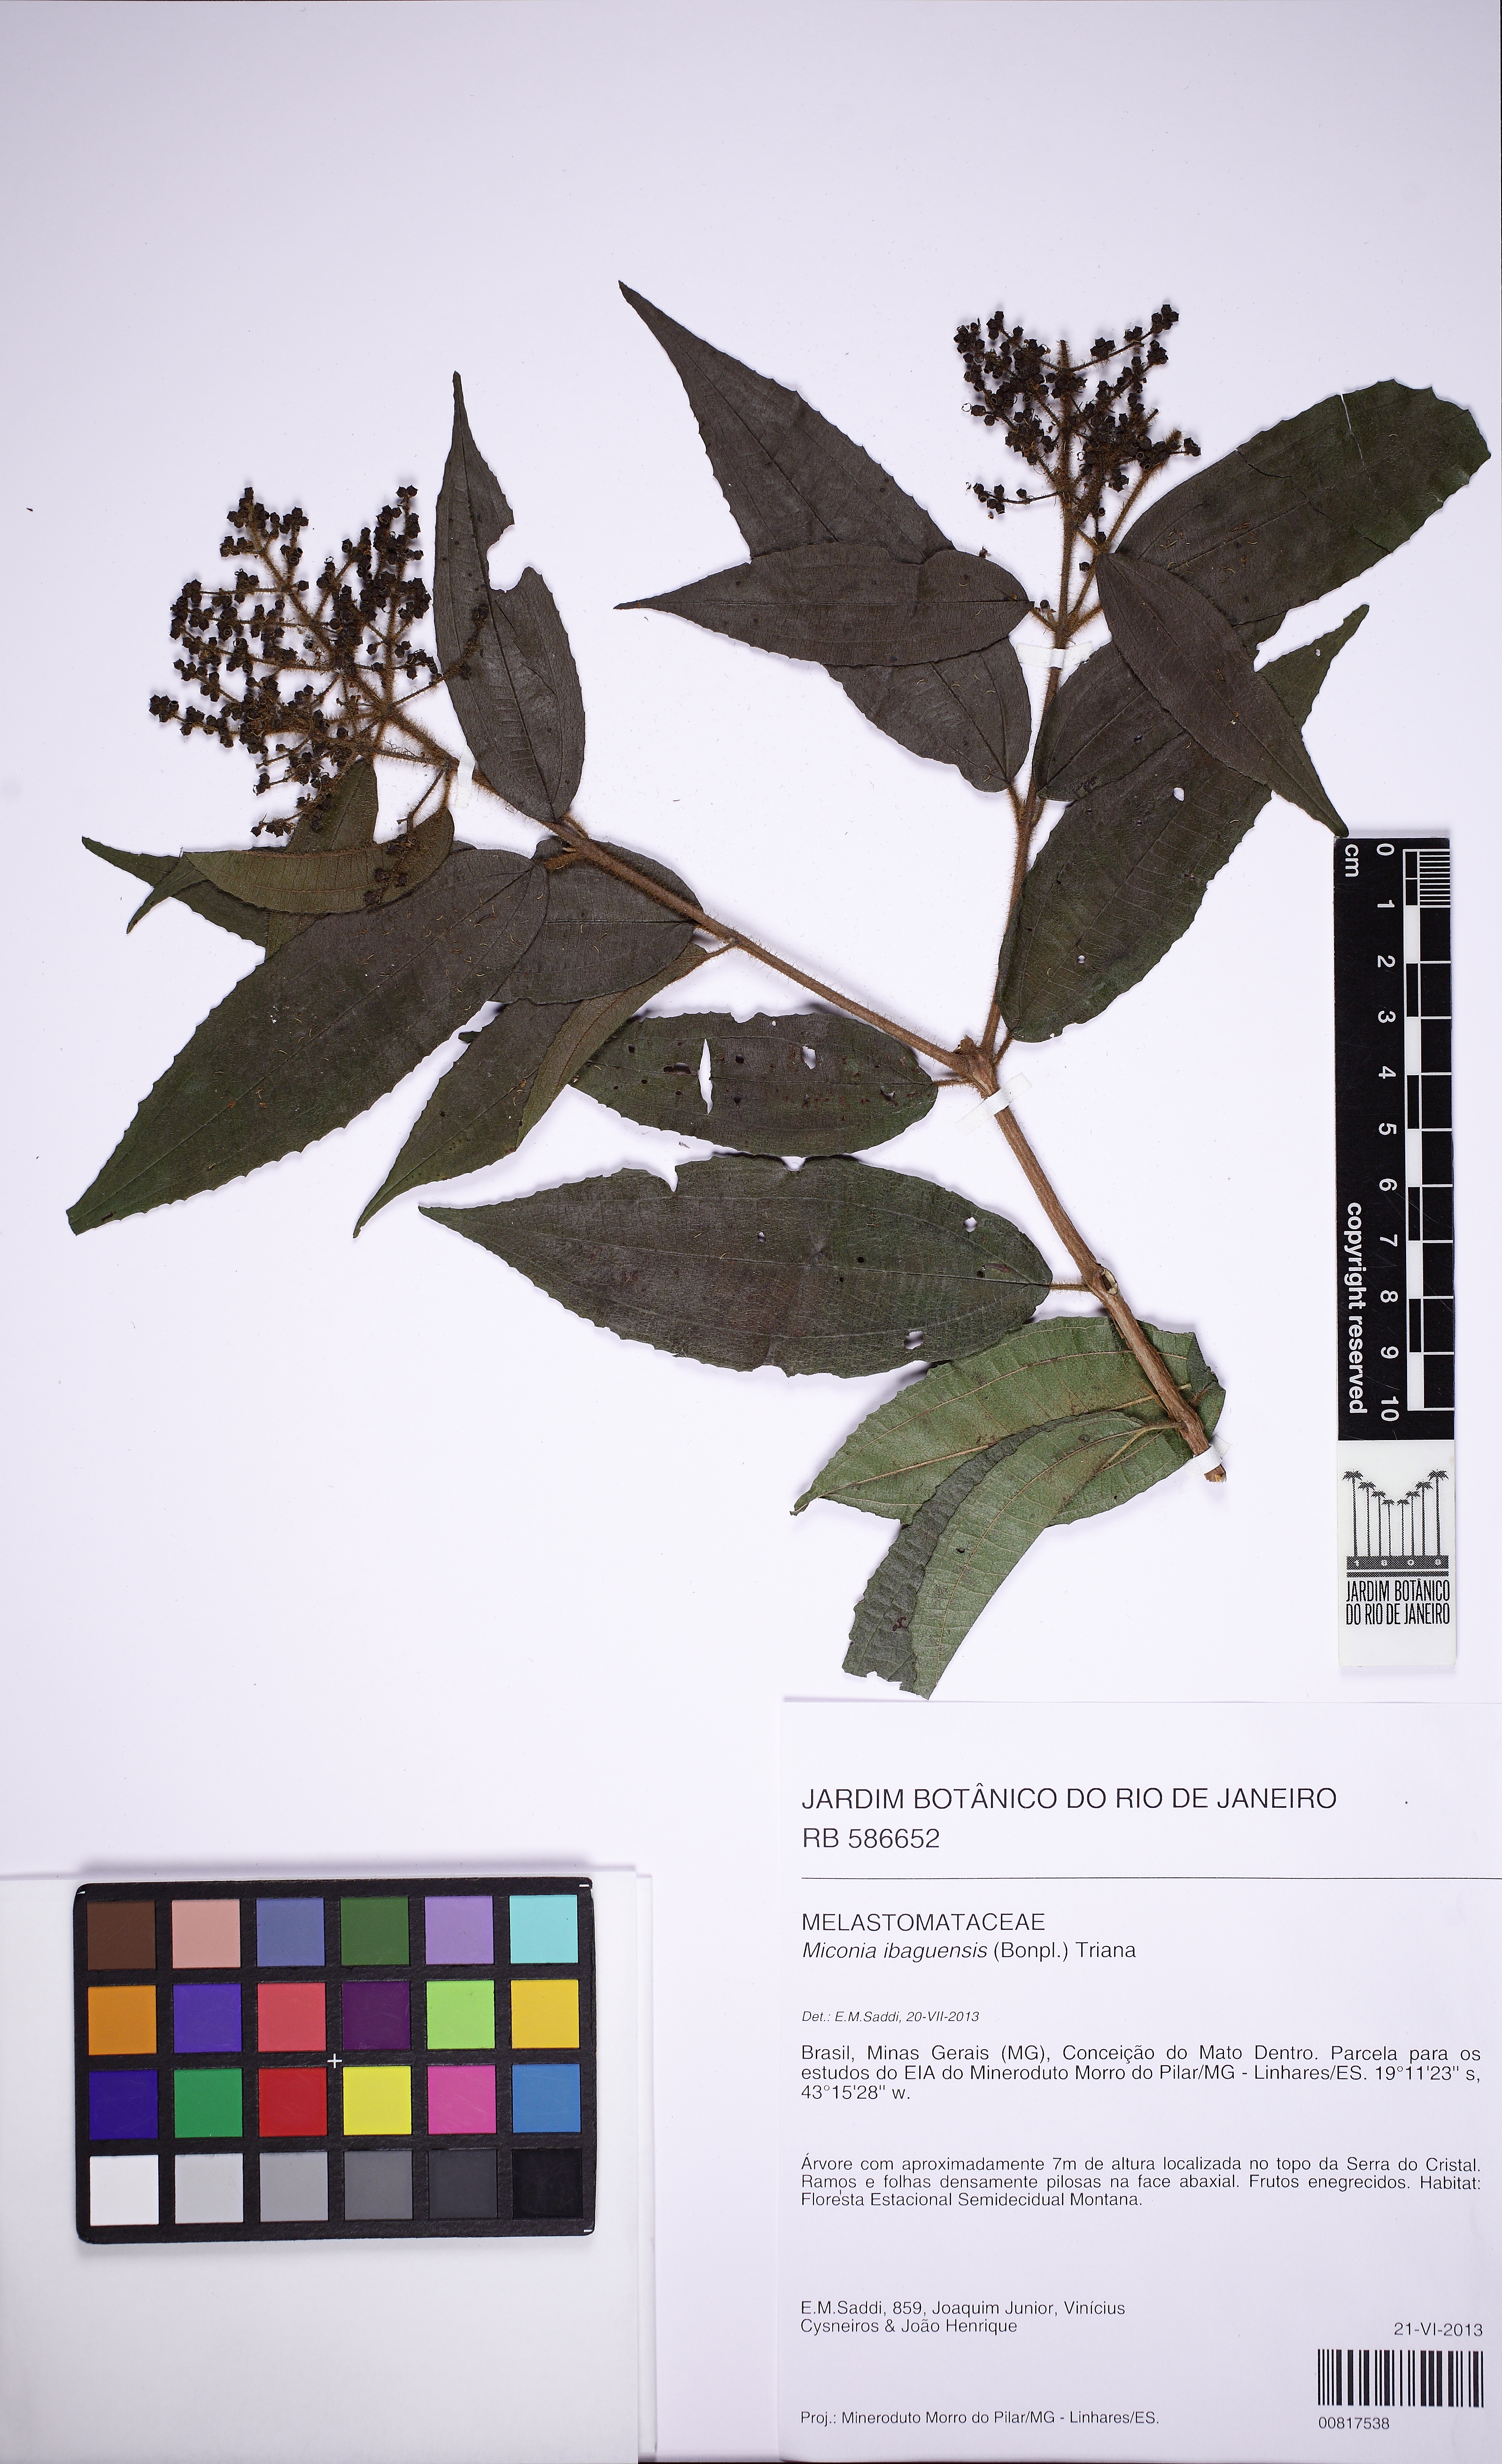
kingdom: Plantae
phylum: Tracheophyta
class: Magnoliopsida
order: Myrtales
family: Melastomataceae
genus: Miconia
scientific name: Miconia ibaguensis
